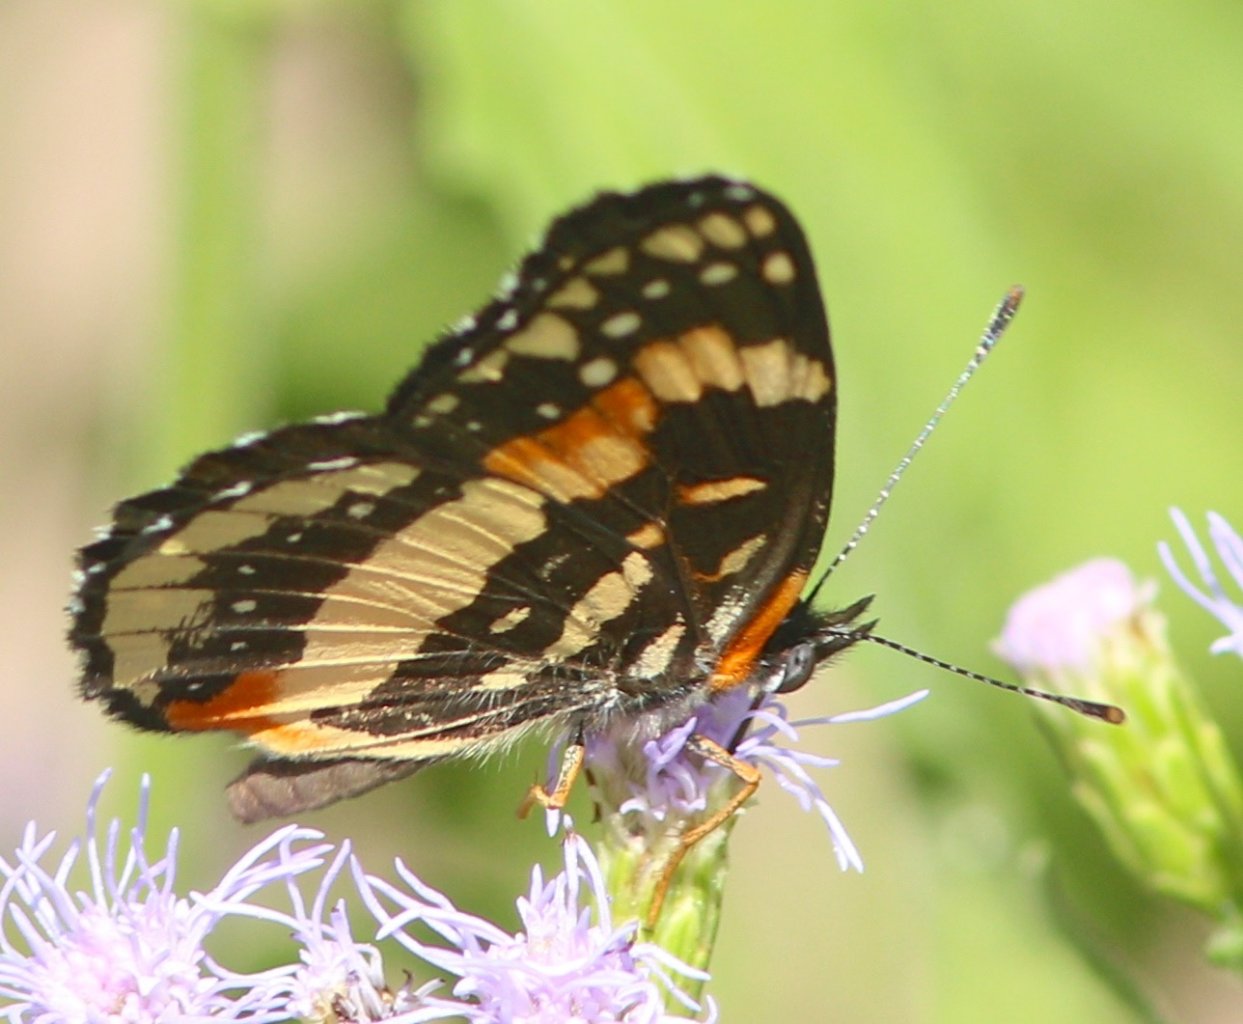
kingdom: Animalia
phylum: Arthropoda
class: Insecta
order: Lepidoptera
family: Nymphalidae
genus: Chlosyne
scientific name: Chlosyne lacinia
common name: Bordered Patch
